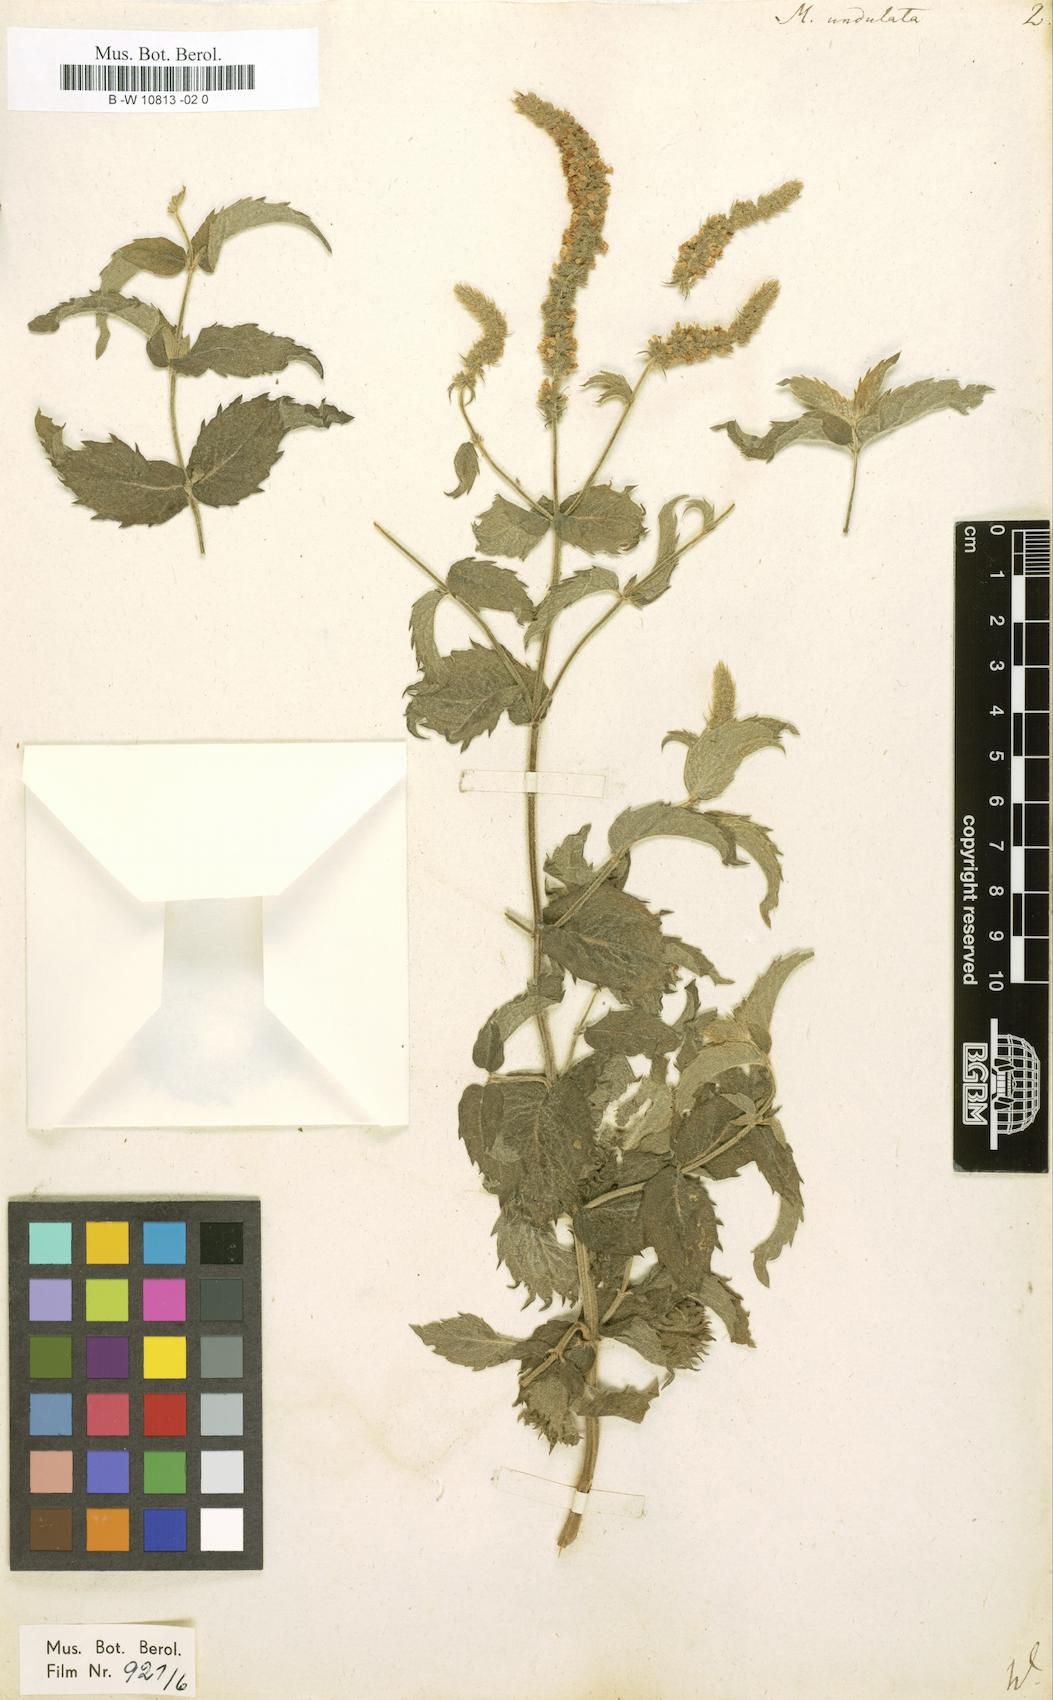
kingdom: Plantae
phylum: Tracheophyta
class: Magnoliopsida
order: Lamiales
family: Lamiaceae
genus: Mentha
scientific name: Mentha spicata
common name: Spearmint
